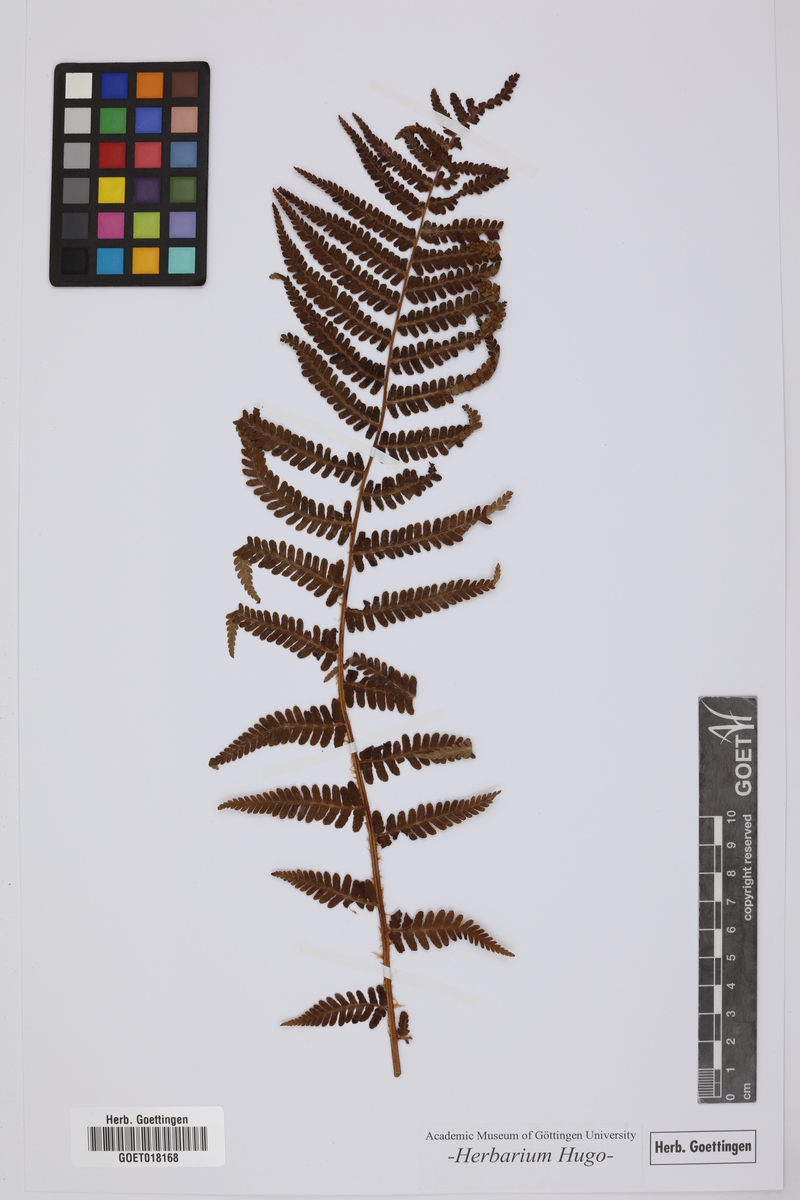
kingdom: Plantae
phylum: Tracheophyta
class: Polypodiopsida
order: Polypodiales
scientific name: Polypodiales
